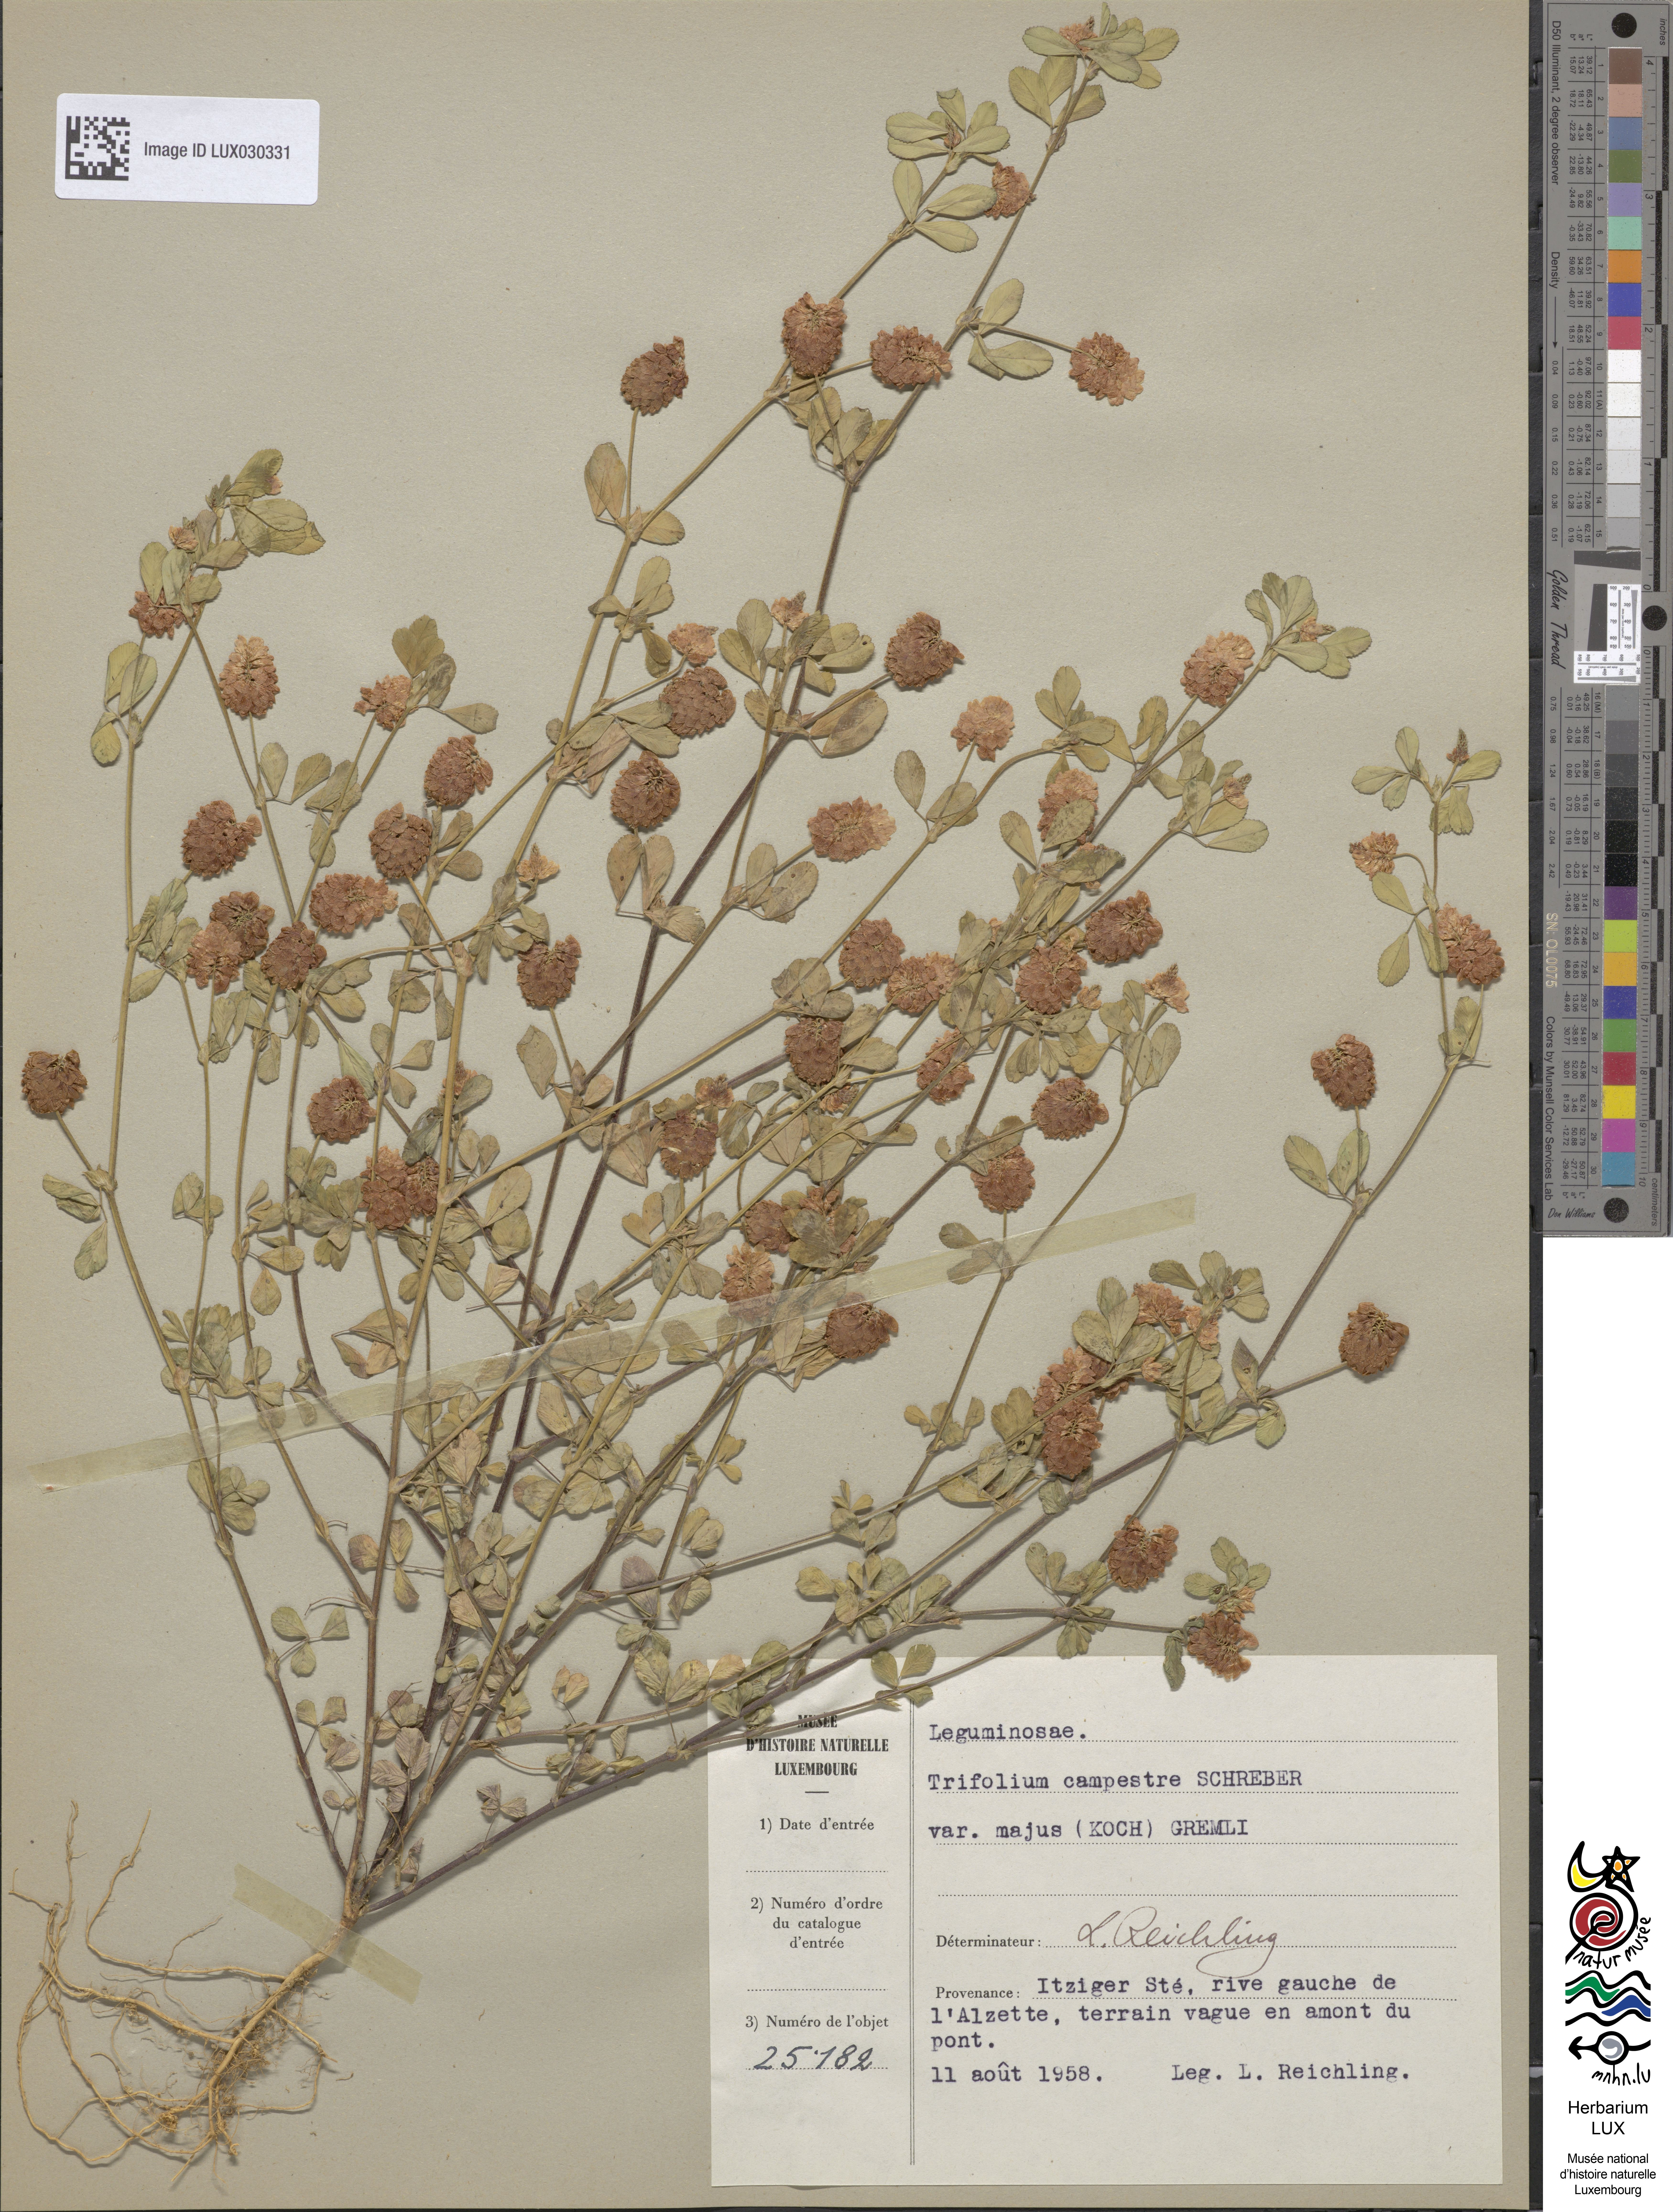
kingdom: Plantae
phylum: Tracheophyta
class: Magnoliopsida
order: Fabales
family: Fabaceae
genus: Trifolium
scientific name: Trifolium campestre
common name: Field clover
